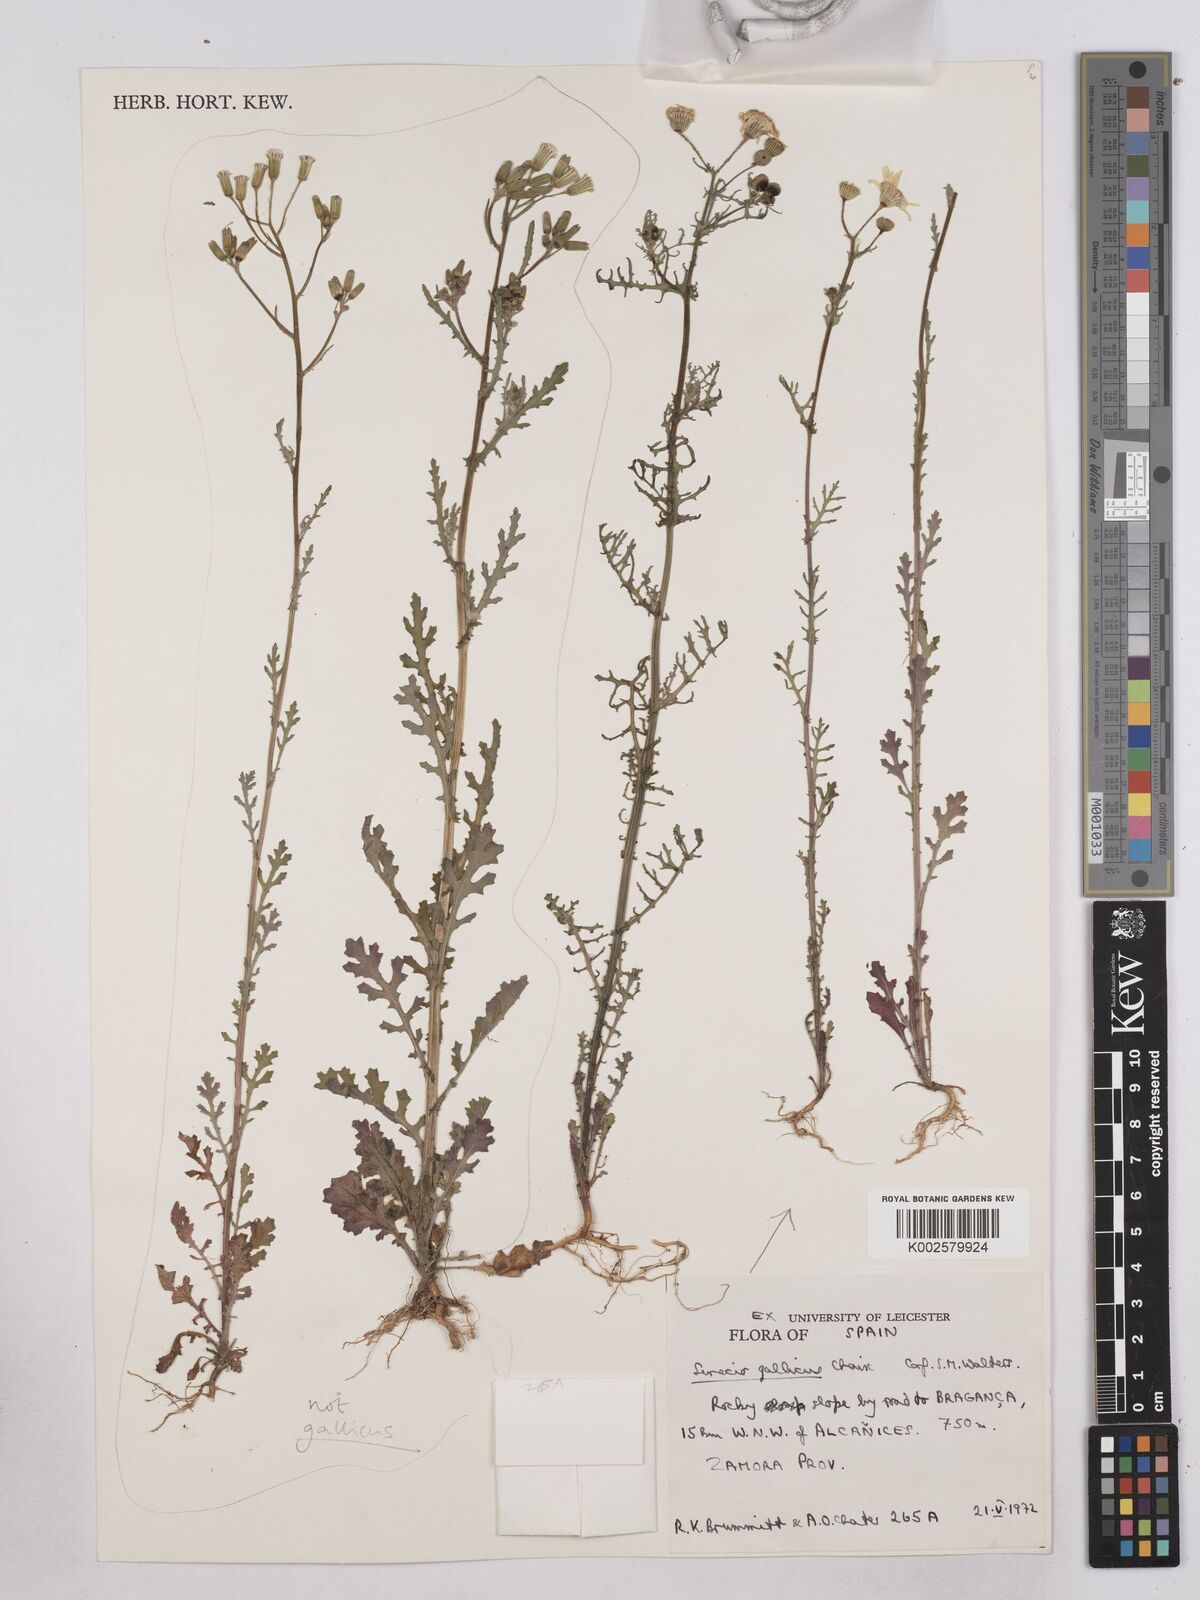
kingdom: Plantae
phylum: Tracheophyta
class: Magnoliopsida
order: Asterales
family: Asteraceae
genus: Senecio
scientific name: Senecio gallicus
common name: French groundsel
